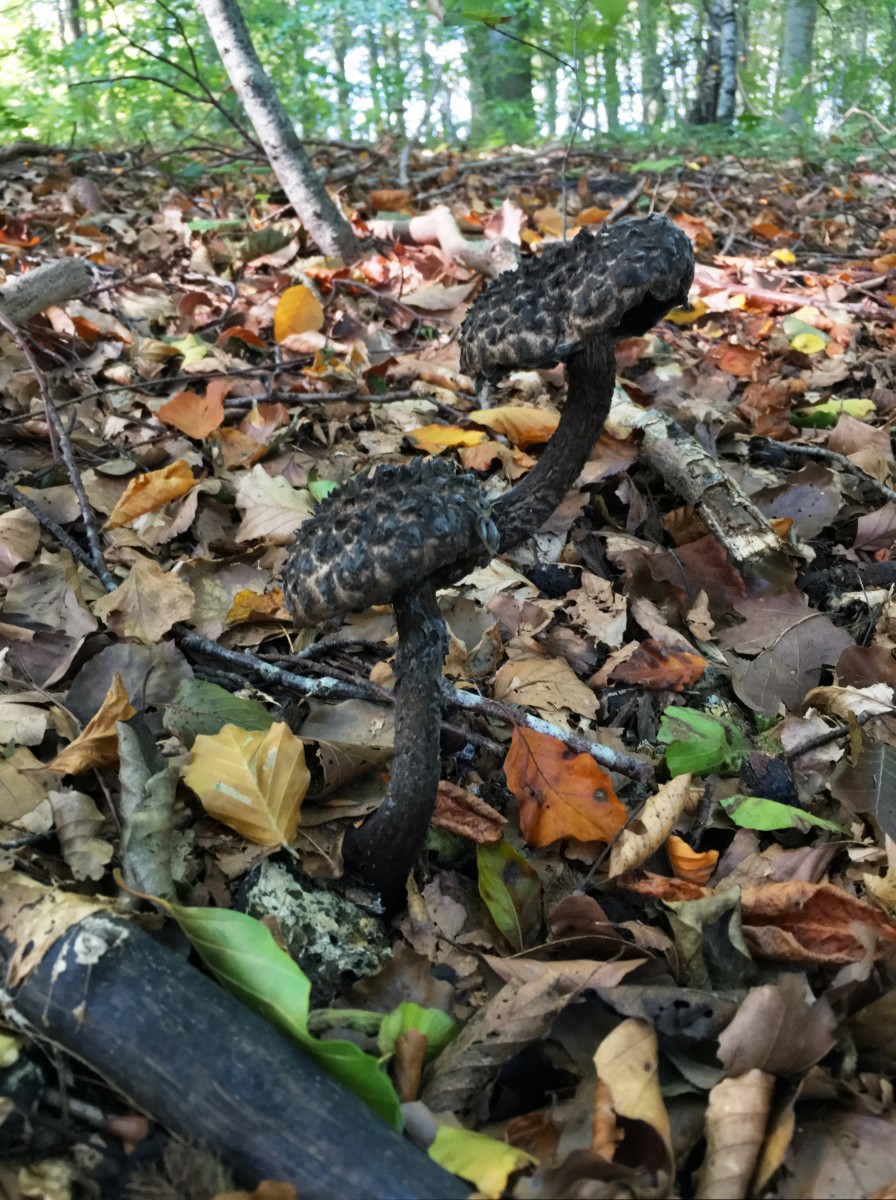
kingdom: Fungi
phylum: Basidiomycota
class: Agaricomycetes
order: Boletales
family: Boletaceae
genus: Strobilomyces
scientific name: Strobilomyces strobilaceus
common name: koglerørhat
